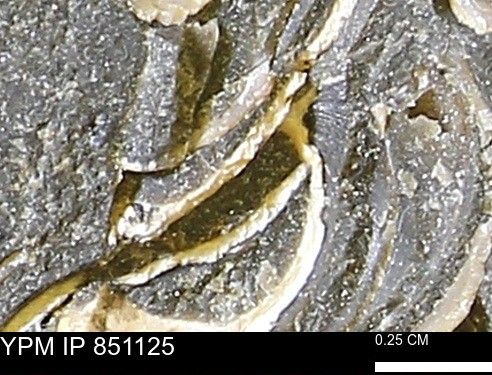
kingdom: Animalia
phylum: Mollusca
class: Bivalvia
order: Arcida
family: Limopsidae
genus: Limopsis
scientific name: Limopsis
